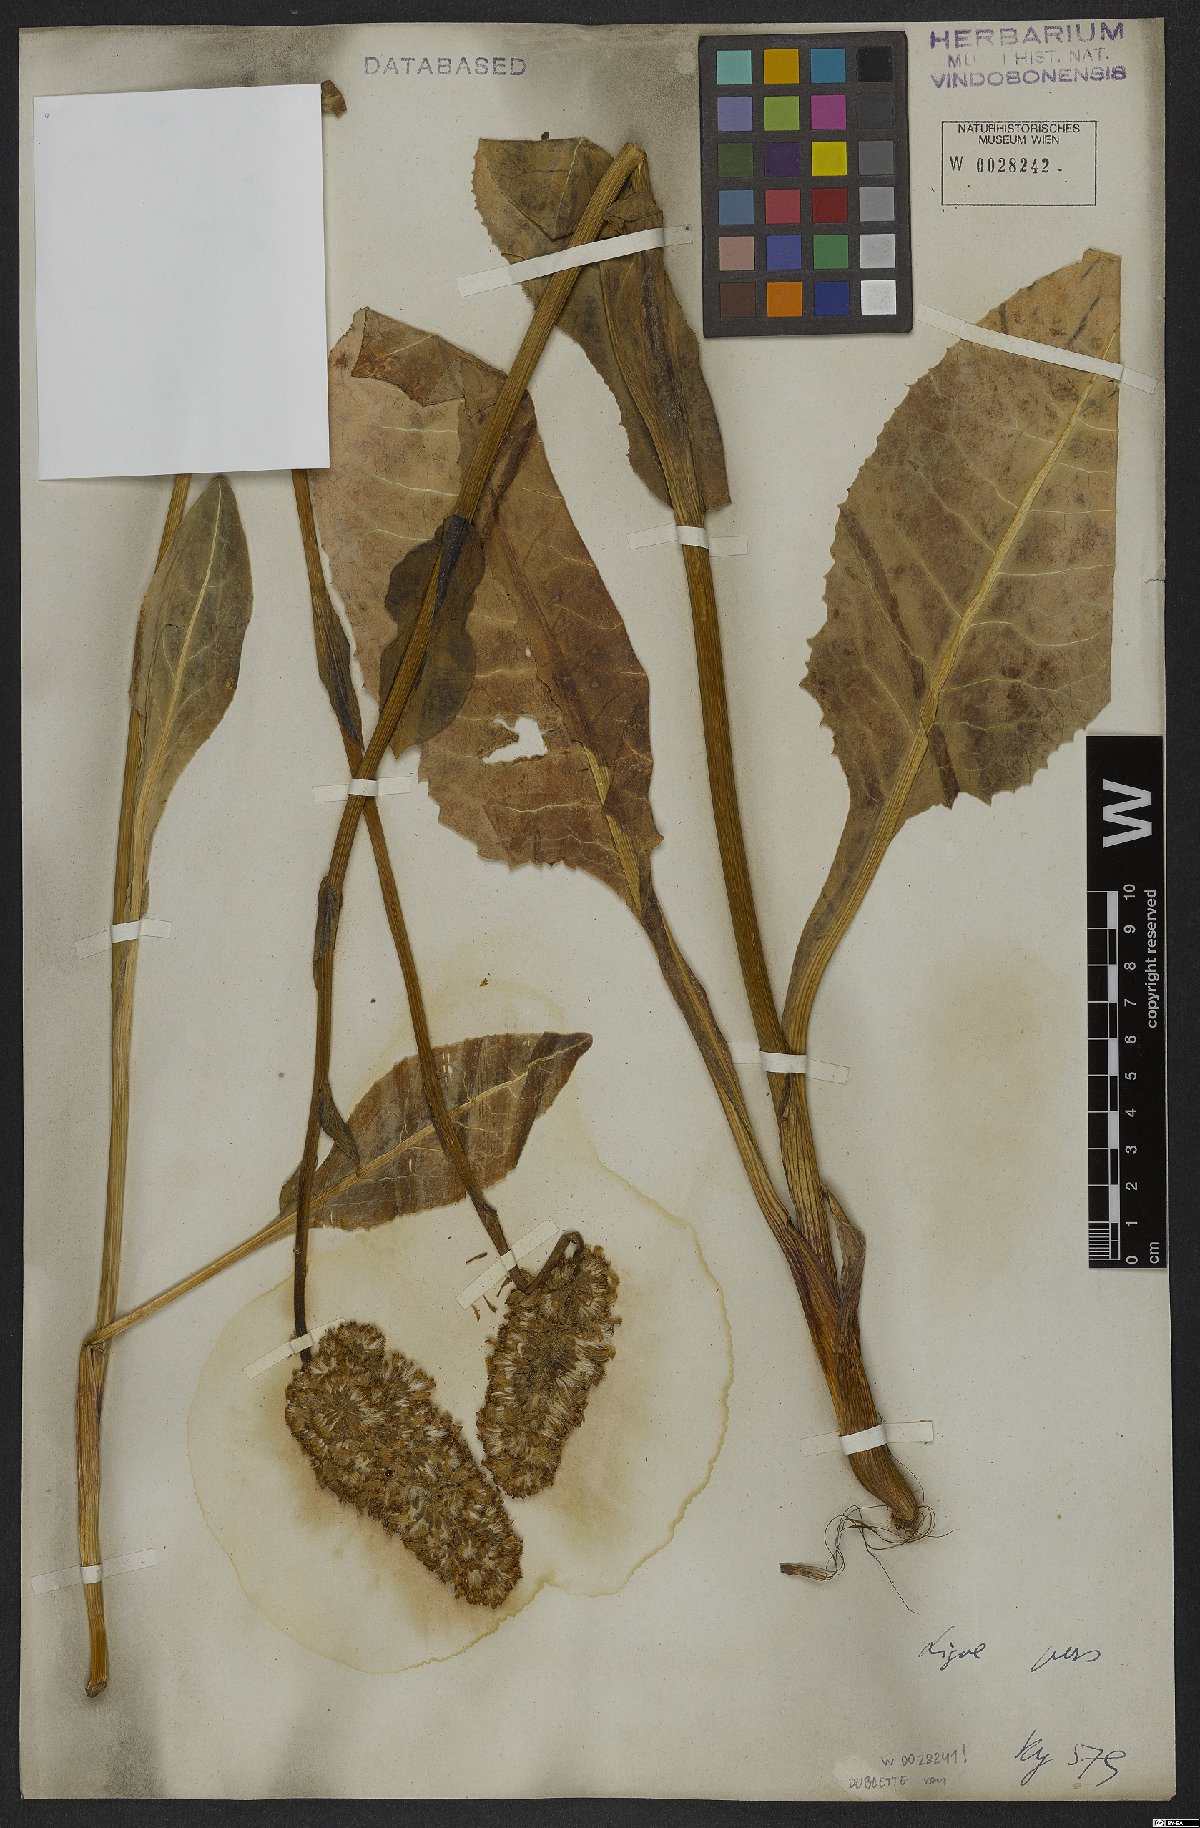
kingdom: Plantae
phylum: Tracheophyta
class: Magnoliopsida
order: Asterales
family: Asteraceae
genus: Dolichorrhiza
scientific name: Dolichorrhiza persica
